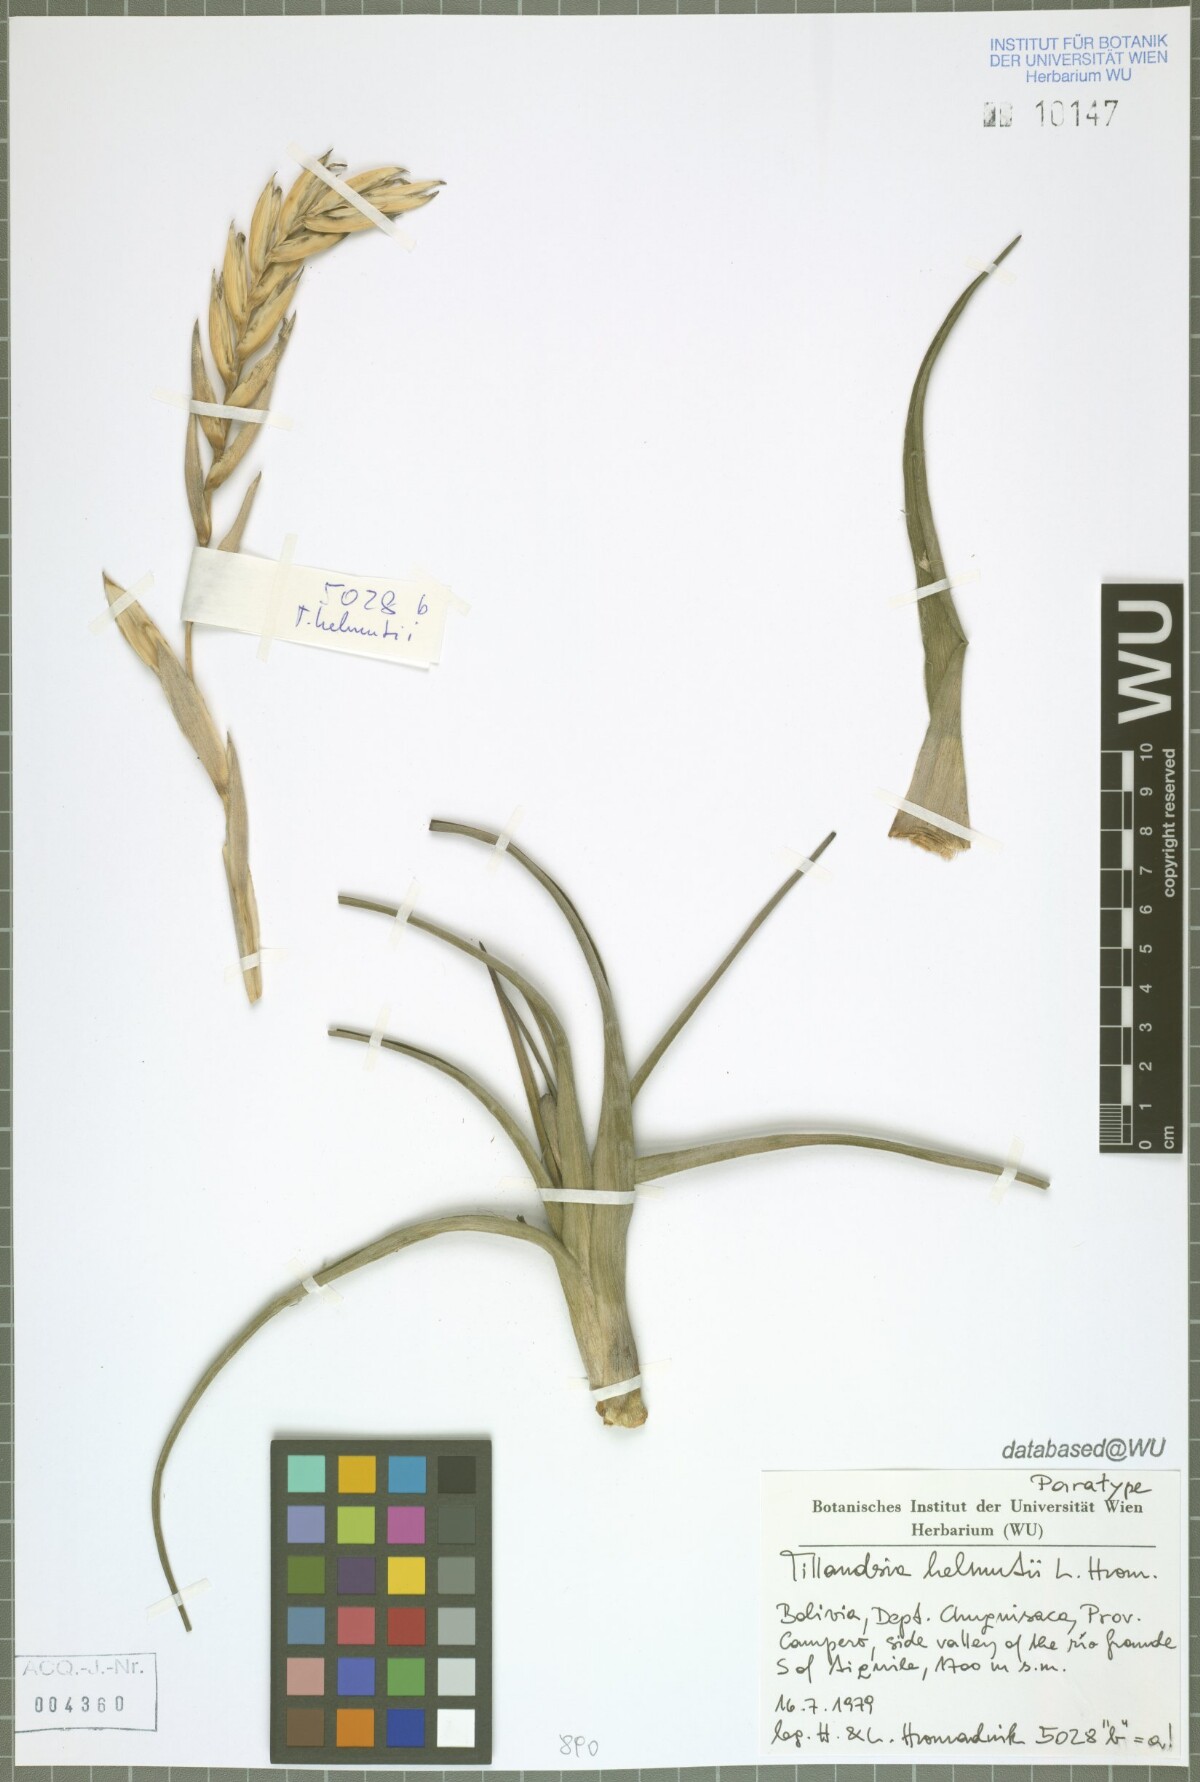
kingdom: Plantae
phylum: Tracheophyta
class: Liliopsida
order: Poales
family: Bromeliaceae
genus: Tillandsia
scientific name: Tillandsia helmutii
